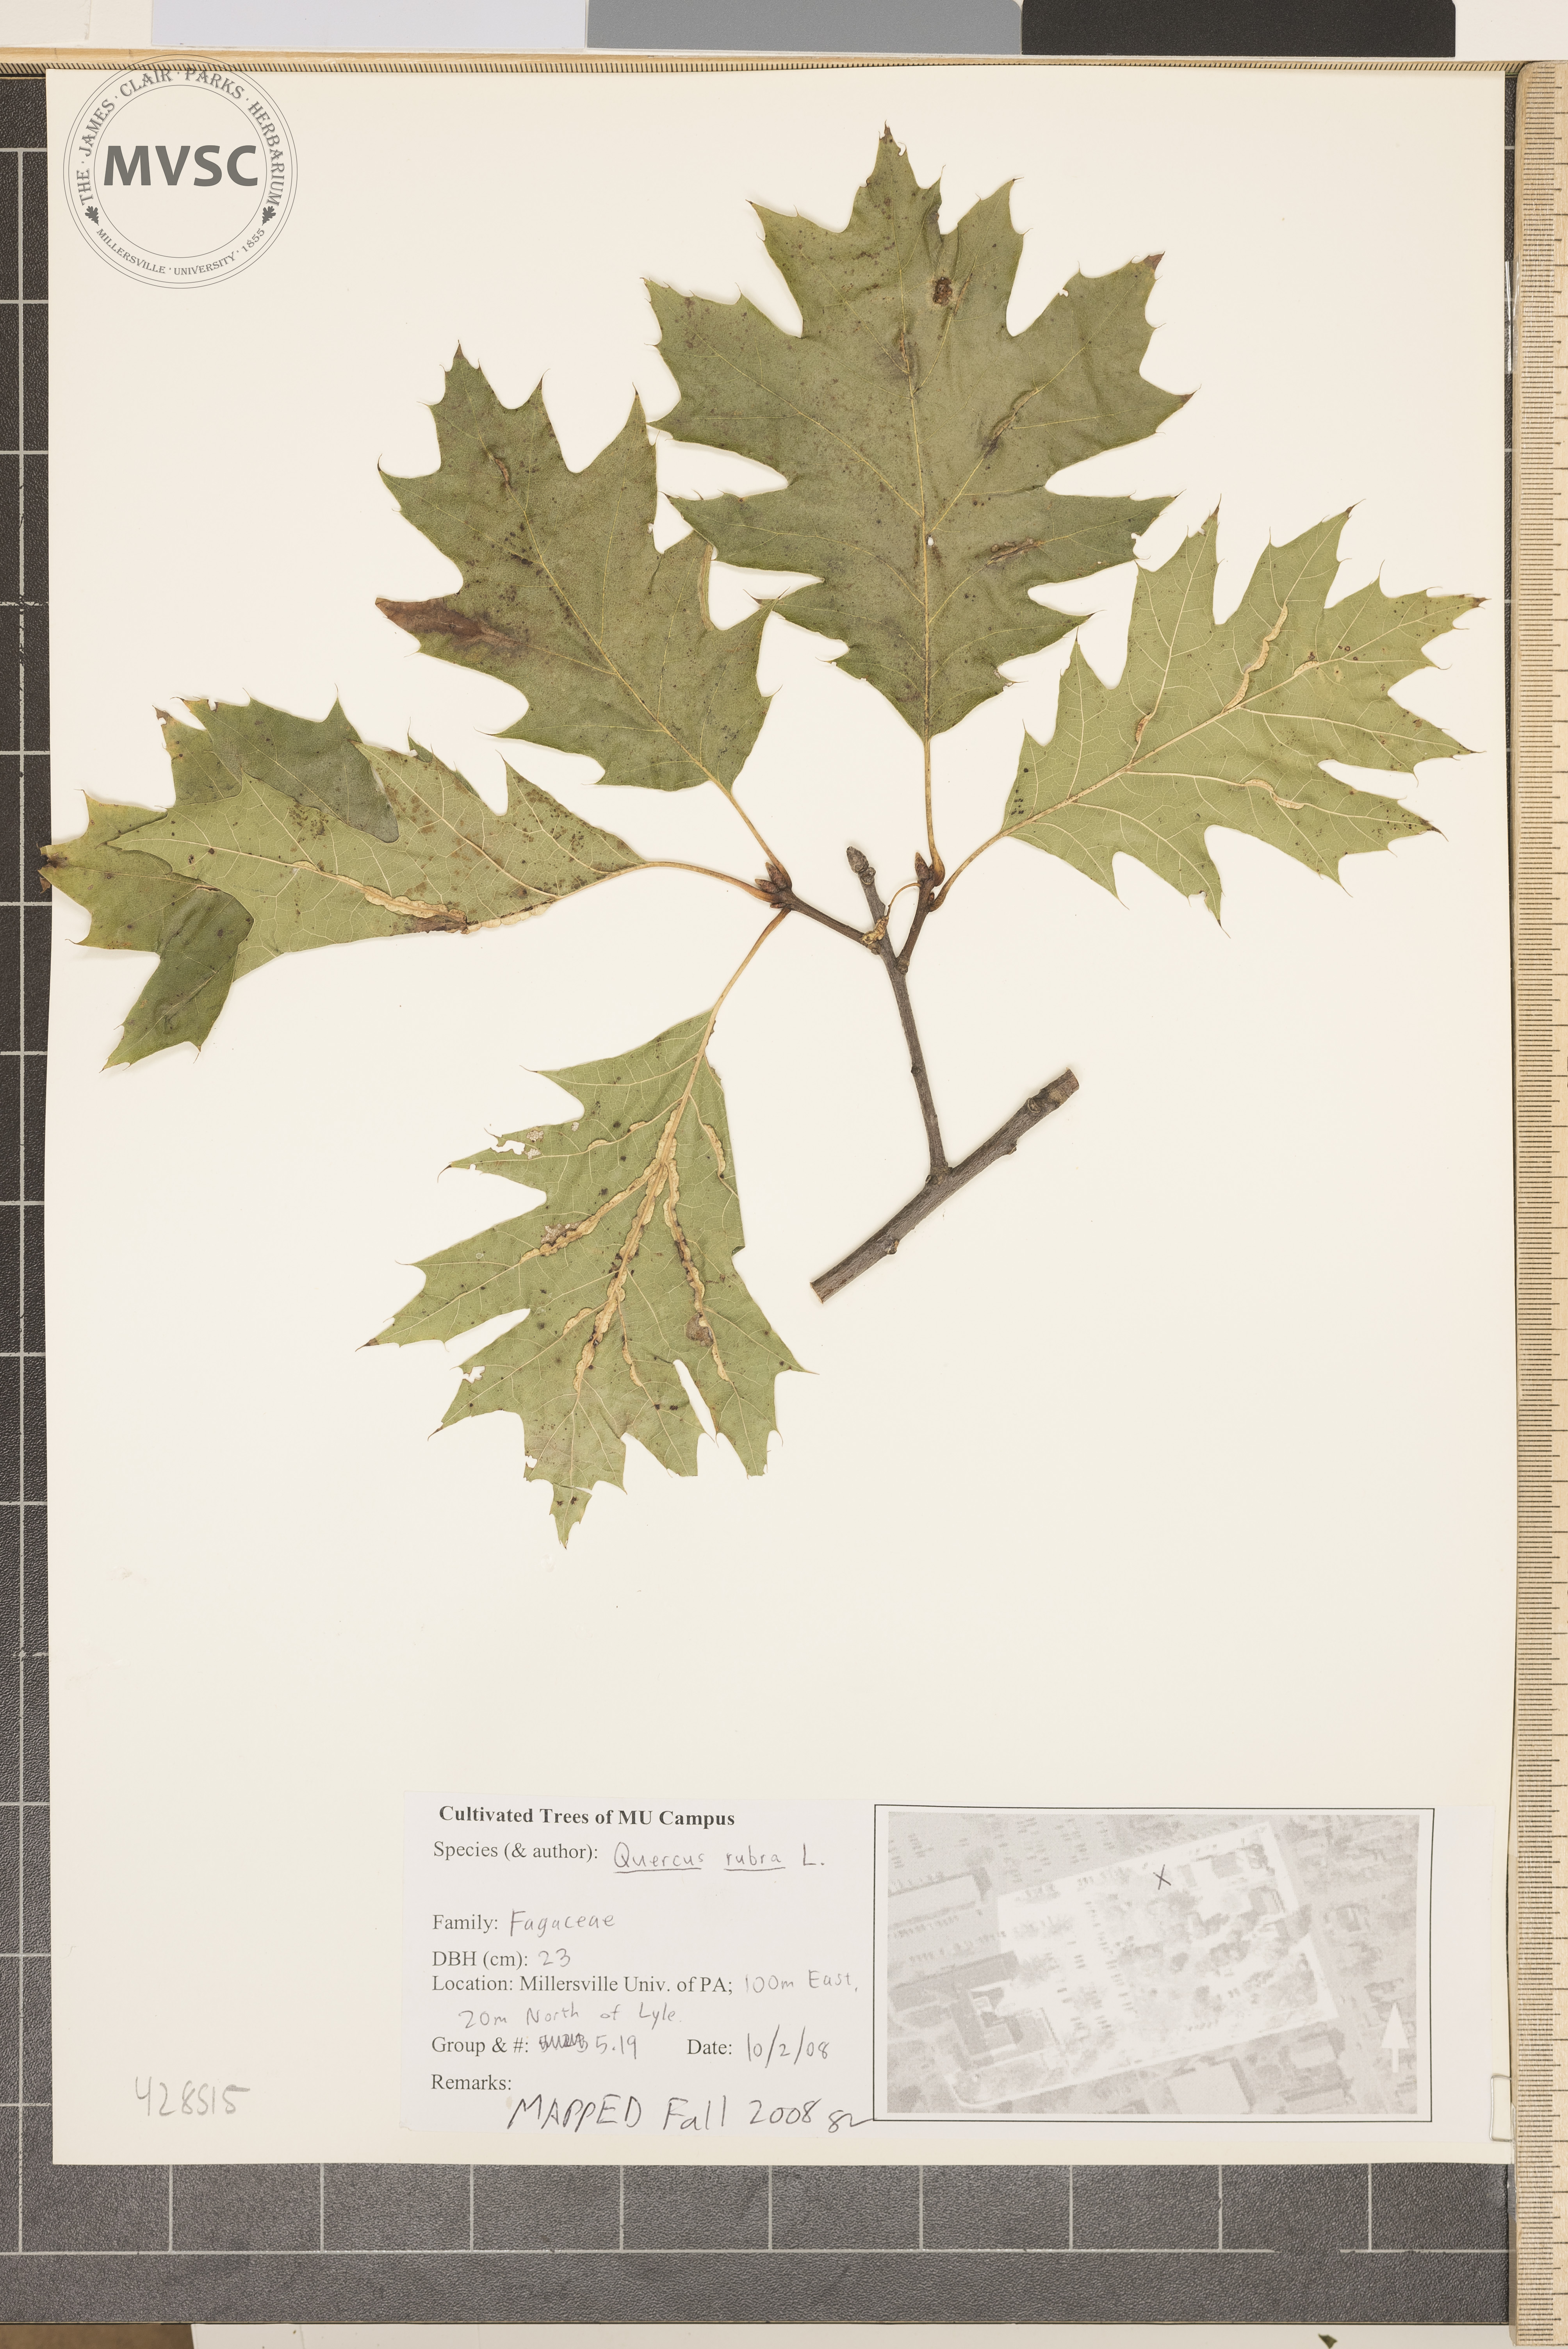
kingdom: Plantae
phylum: Tracheophyta
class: Magnoliopsida
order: Fagales
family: Fagaceae
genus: Quercus
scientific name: Quercus rubra
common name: Northern Red Oak
